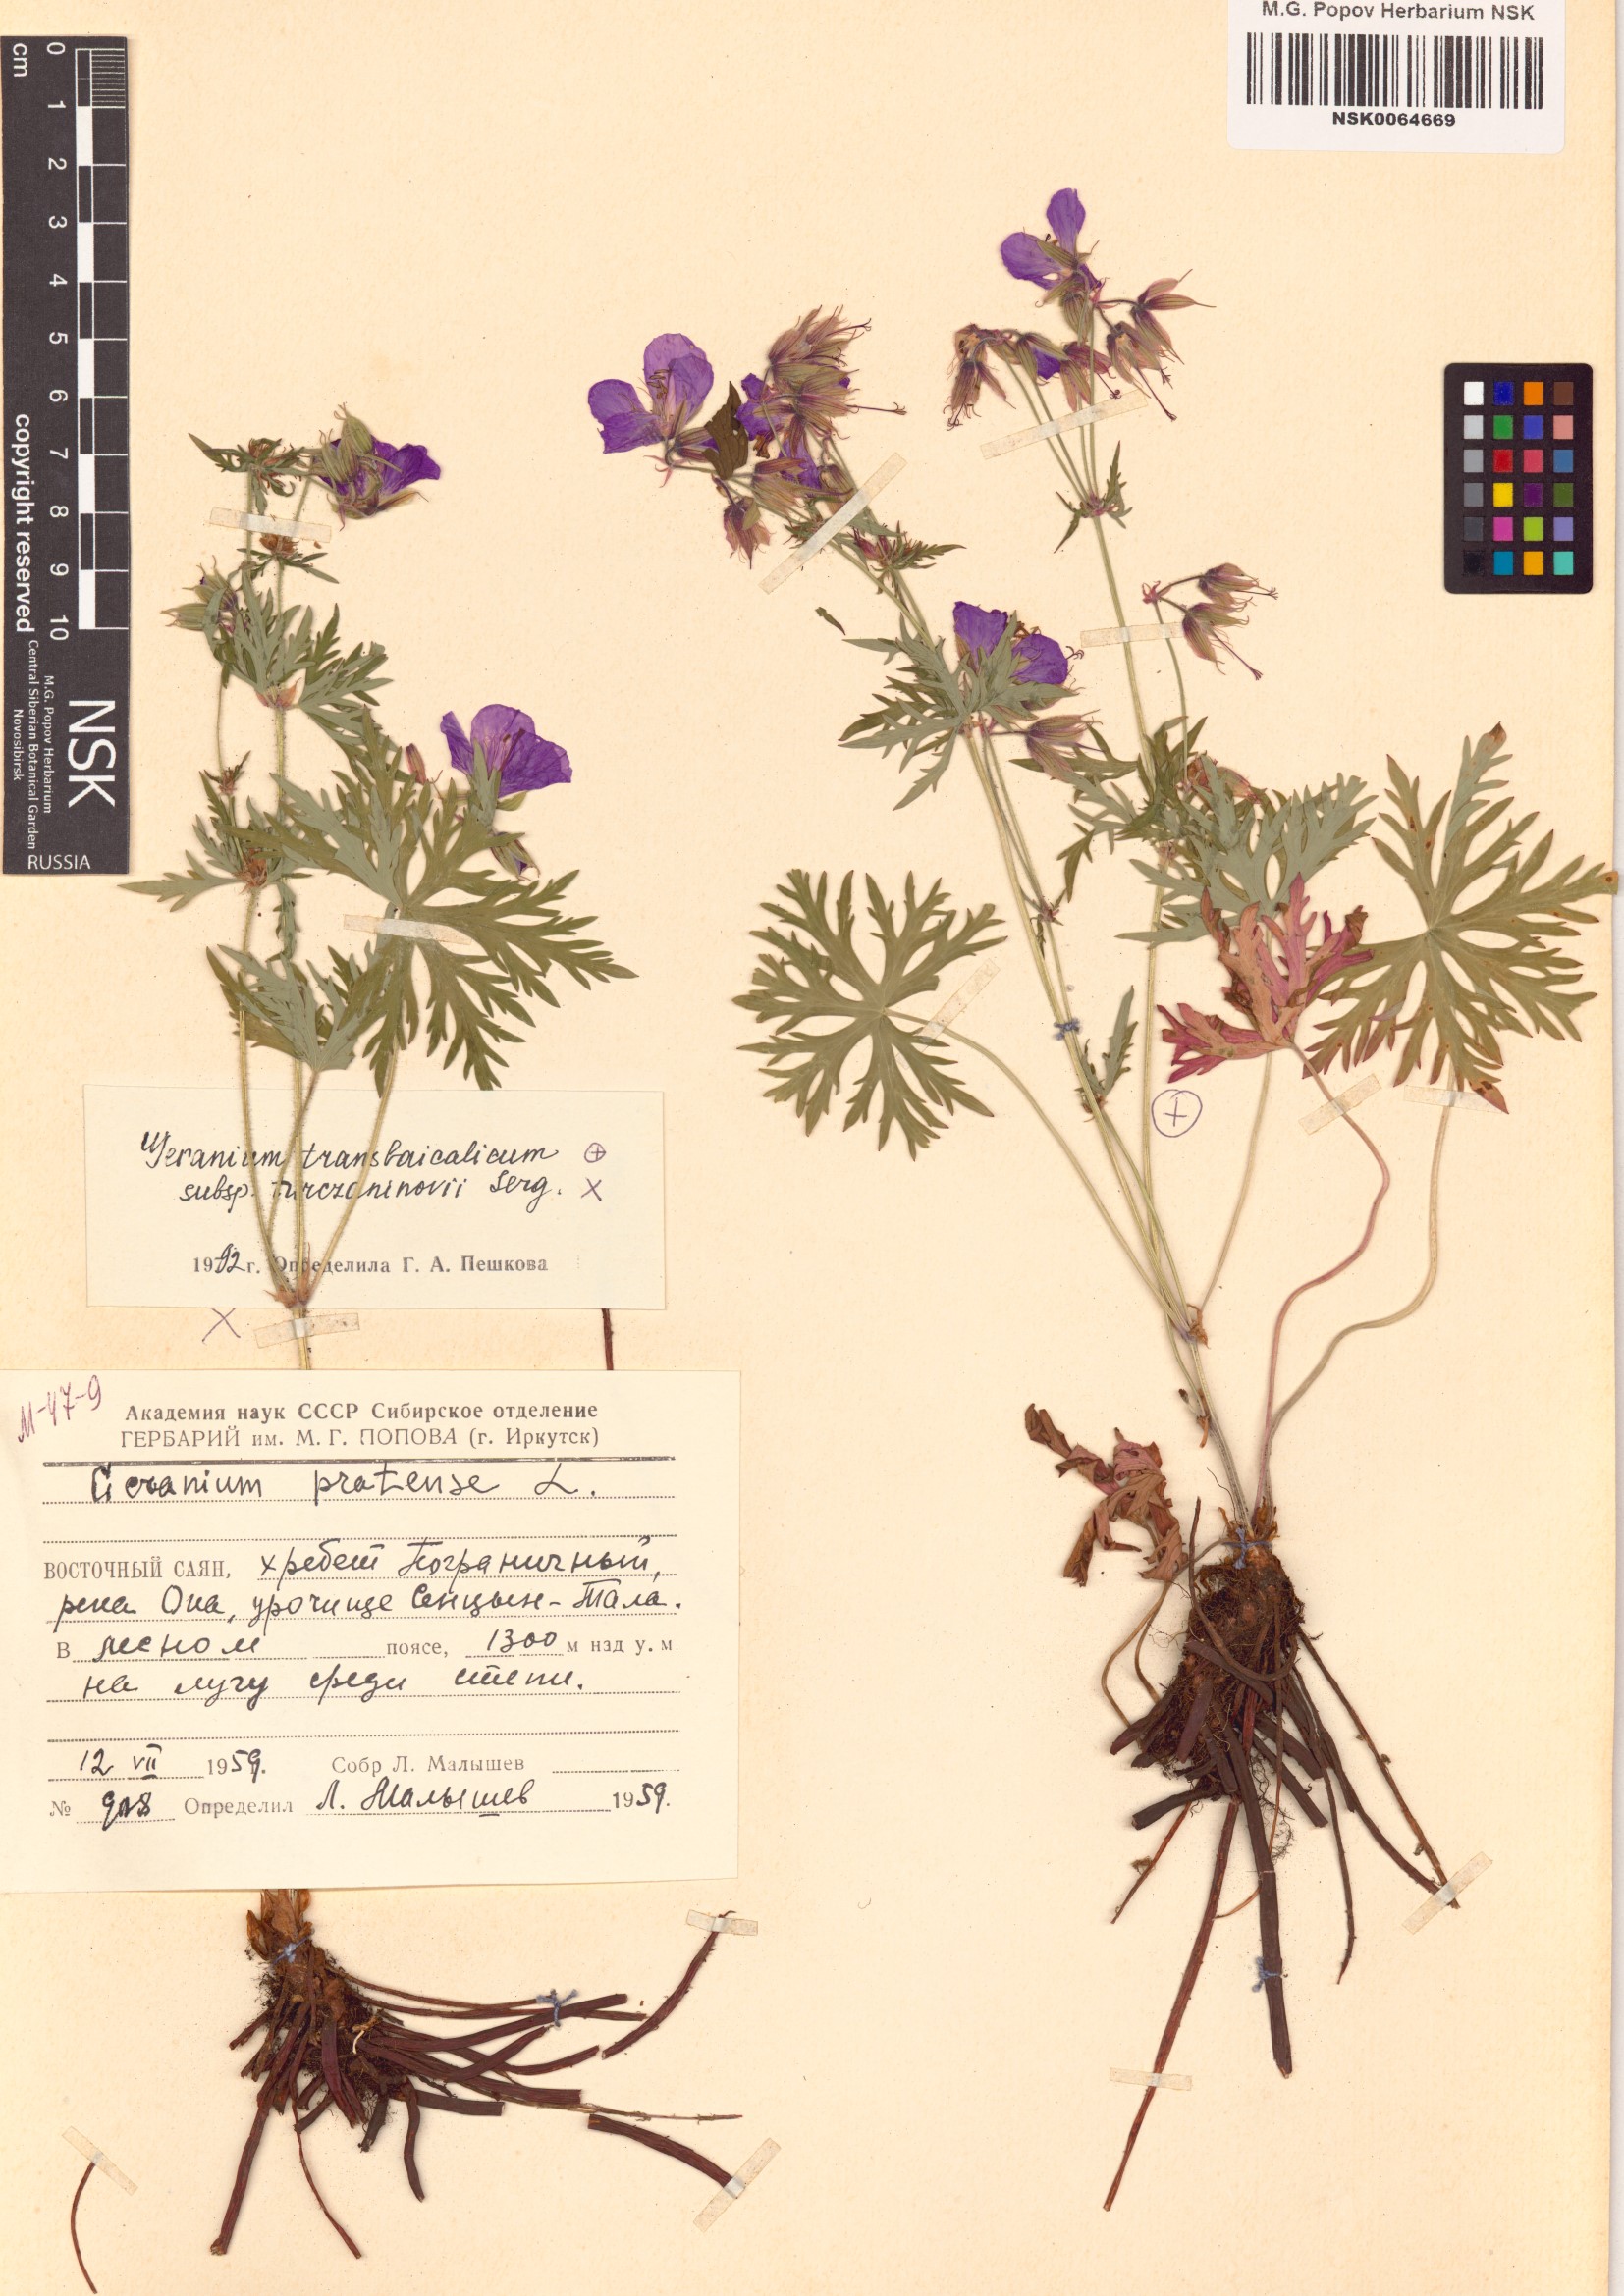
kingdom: Plantae
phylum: Tracheophyta
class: Magnoliopsida
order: Geraniales
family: Geraniaceae
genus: Geranium
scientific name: Geranium pratense
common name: Meadow crane's-bill
